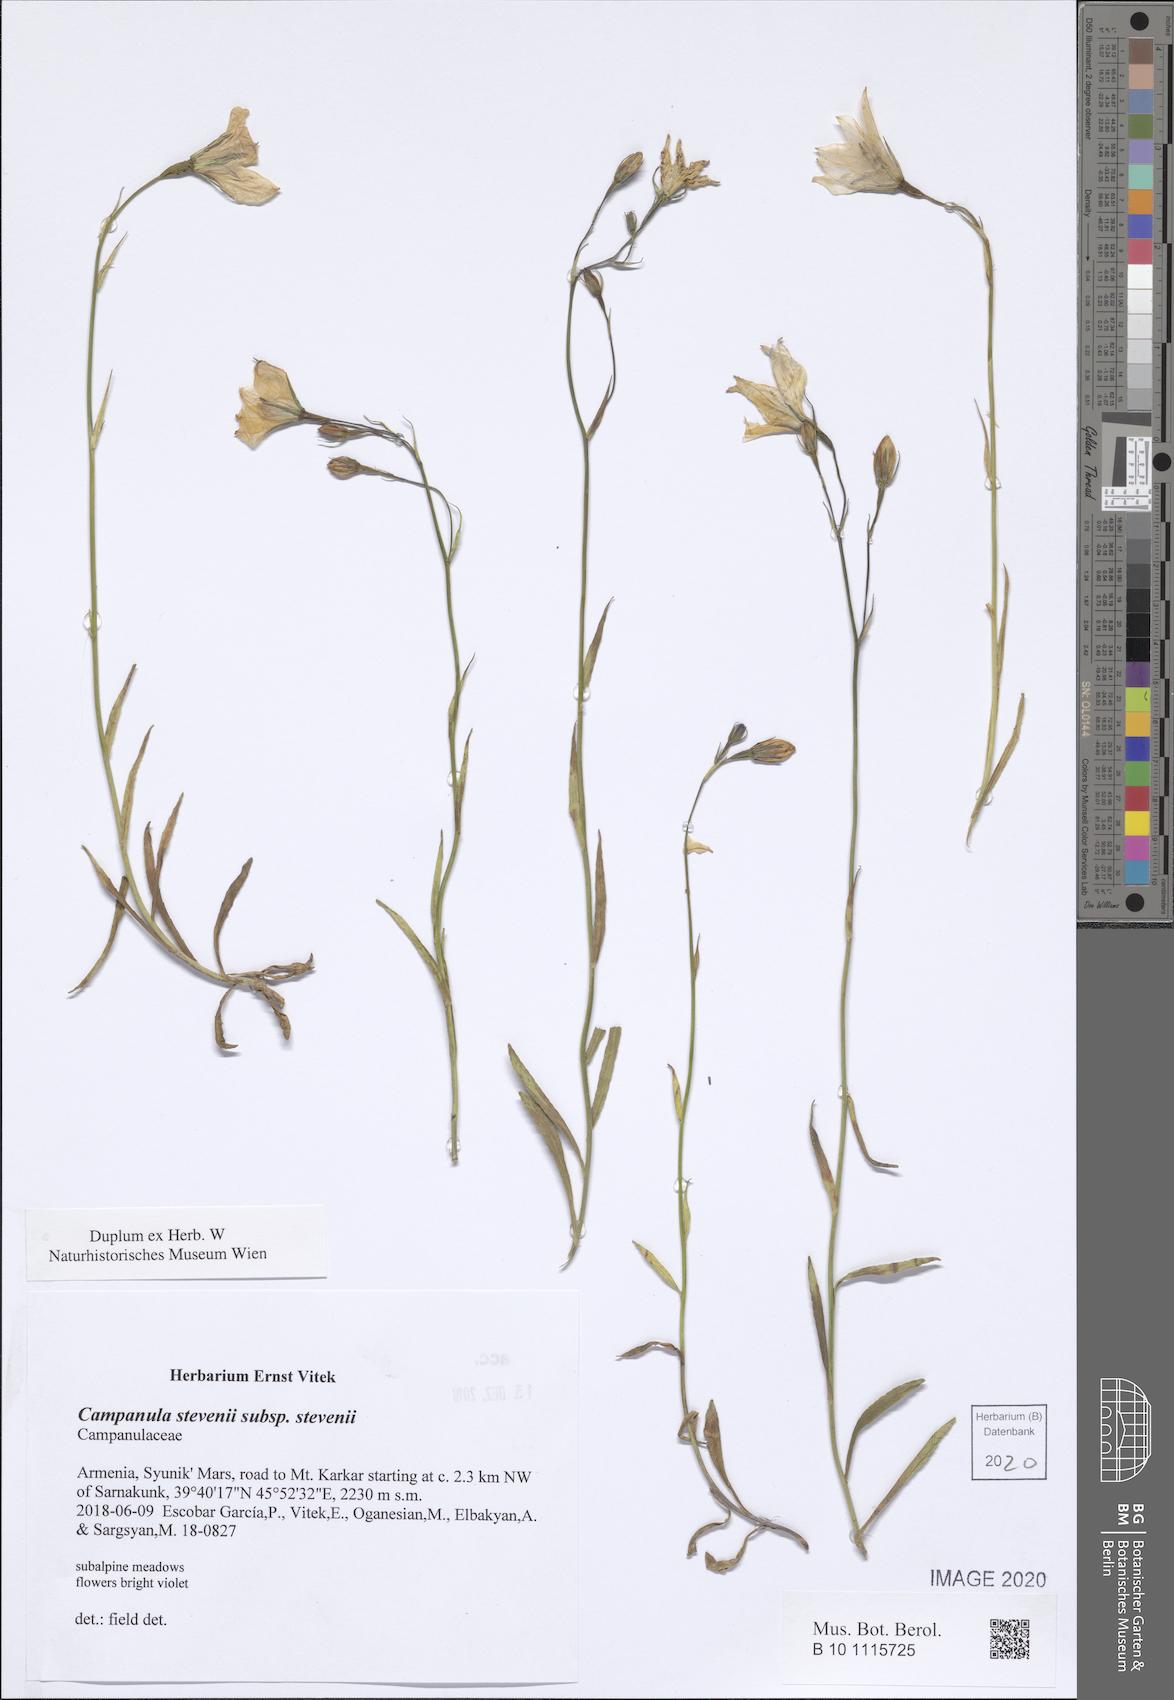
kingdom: Plantae
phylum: Tracheophyta
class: Magnoliopsida
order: Asterales
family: Campanulaceae
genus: Campanula
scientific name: Campanula stevenii
